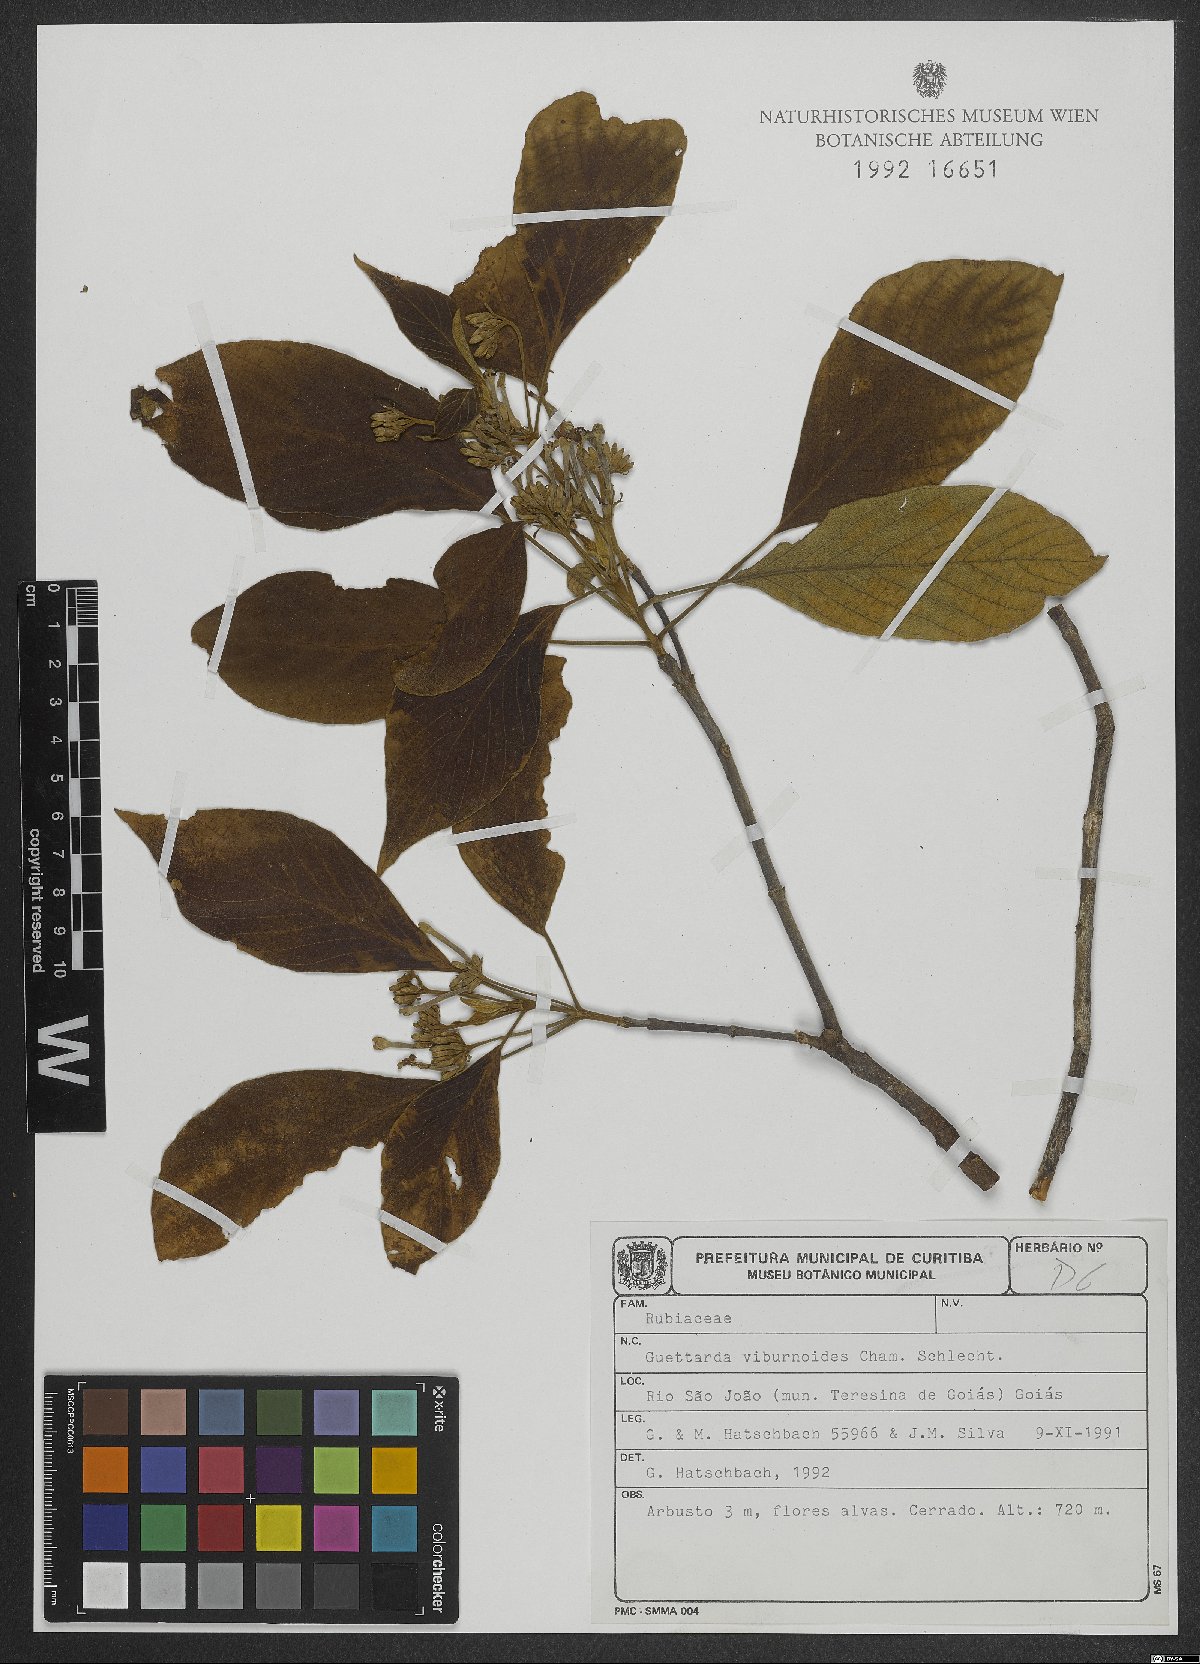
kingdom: Plantae
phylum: Tracheophyta
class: Magnoliopsida
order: Gentianales
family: Rubiaceae
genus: Guettarda
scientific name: Guettarda viburnoides
